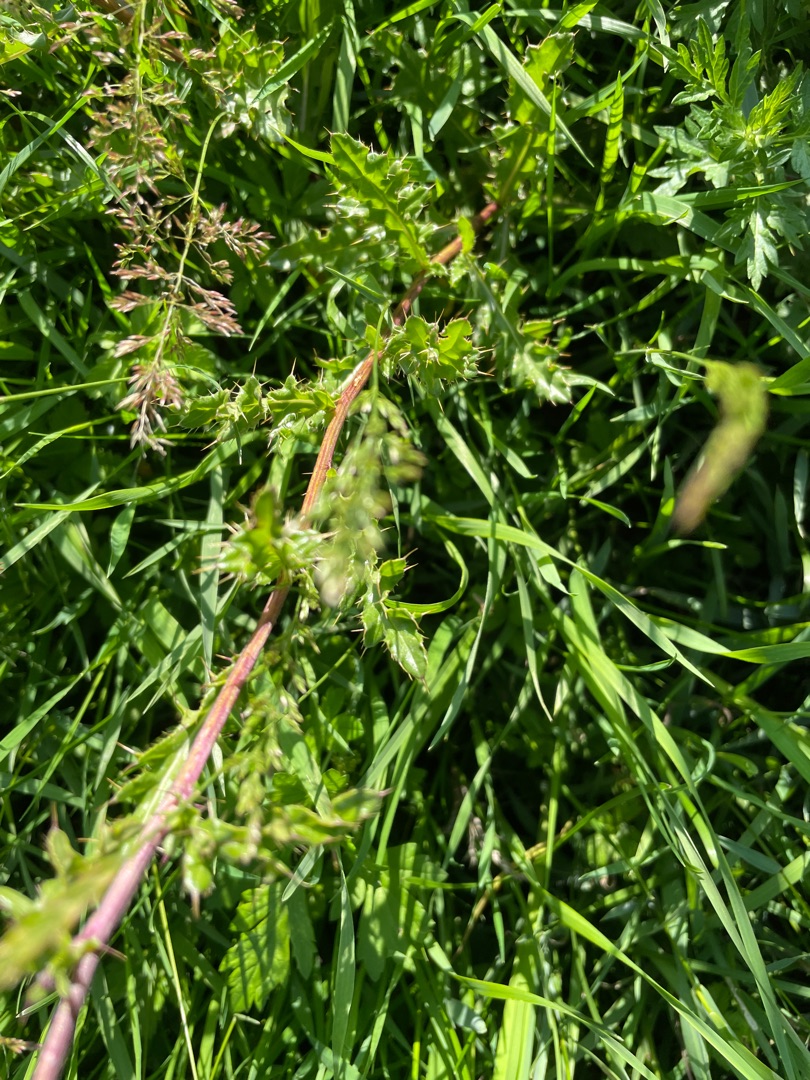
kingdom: Plantae
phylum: Tracheophyta
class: Magnoliopsida
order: Asterales
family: Asteraceae
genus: Cirsium
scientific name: Cirsium arvense
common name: Ager-tidsel
